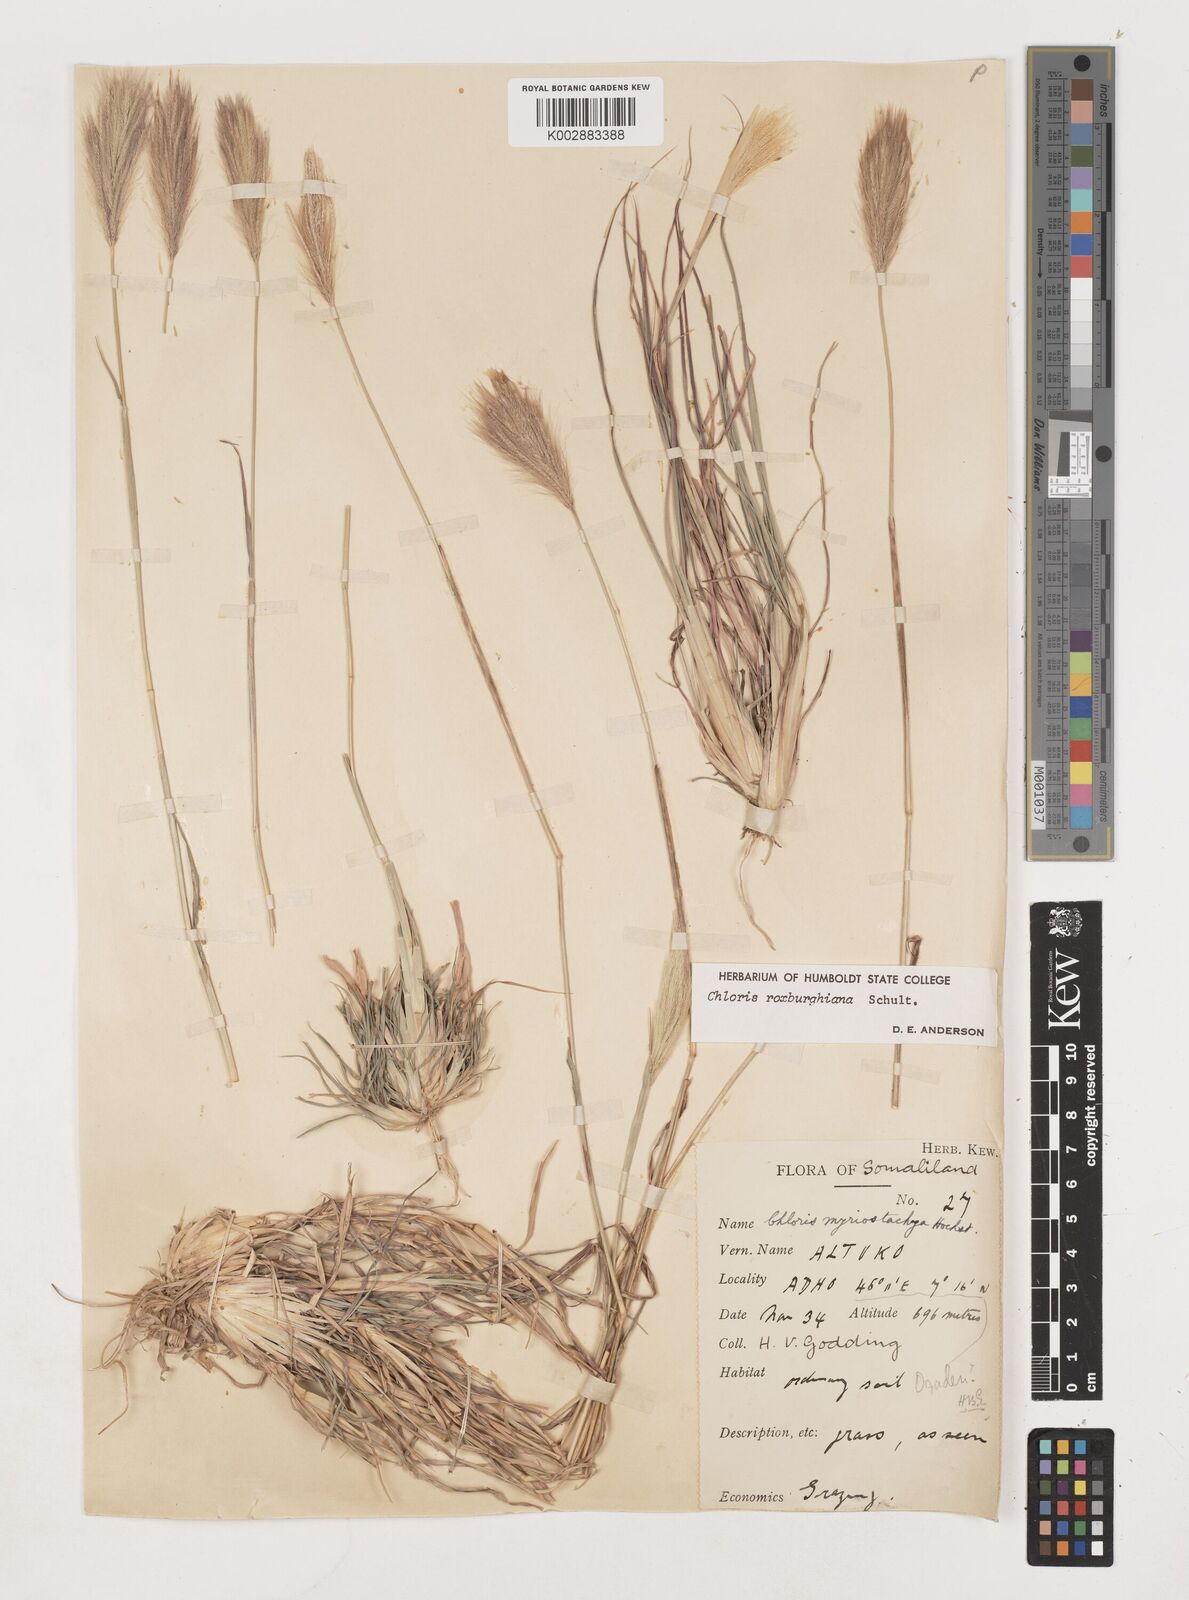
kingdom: Plantae
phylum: Tracheophyta
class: Liliopsida
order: Poales
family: Poaceae
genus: Tetrapogon
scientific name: Tetrapogon roxburghiana
